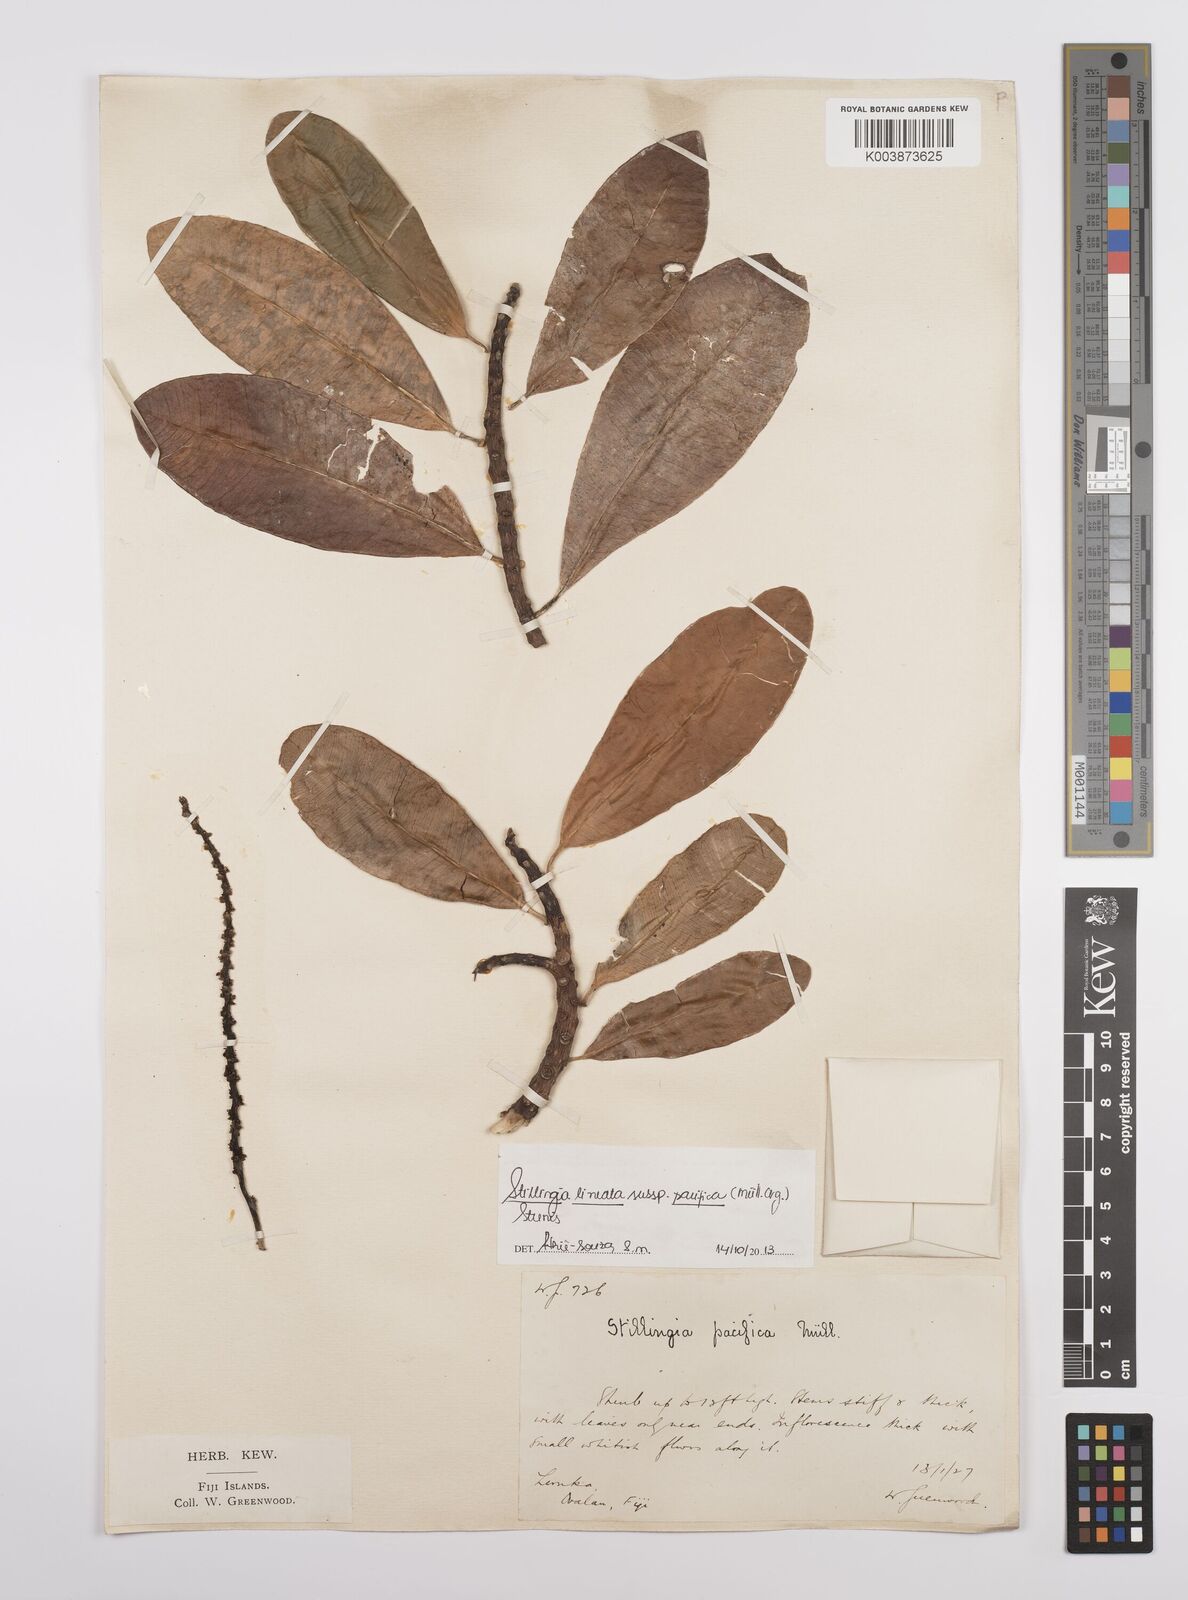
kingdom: Plantae
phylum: Tracheophyta
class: Magnoliopsida
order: Malpighiales
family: Euphorbiaceae
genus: Stillingia
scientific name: Stillingia lineata
